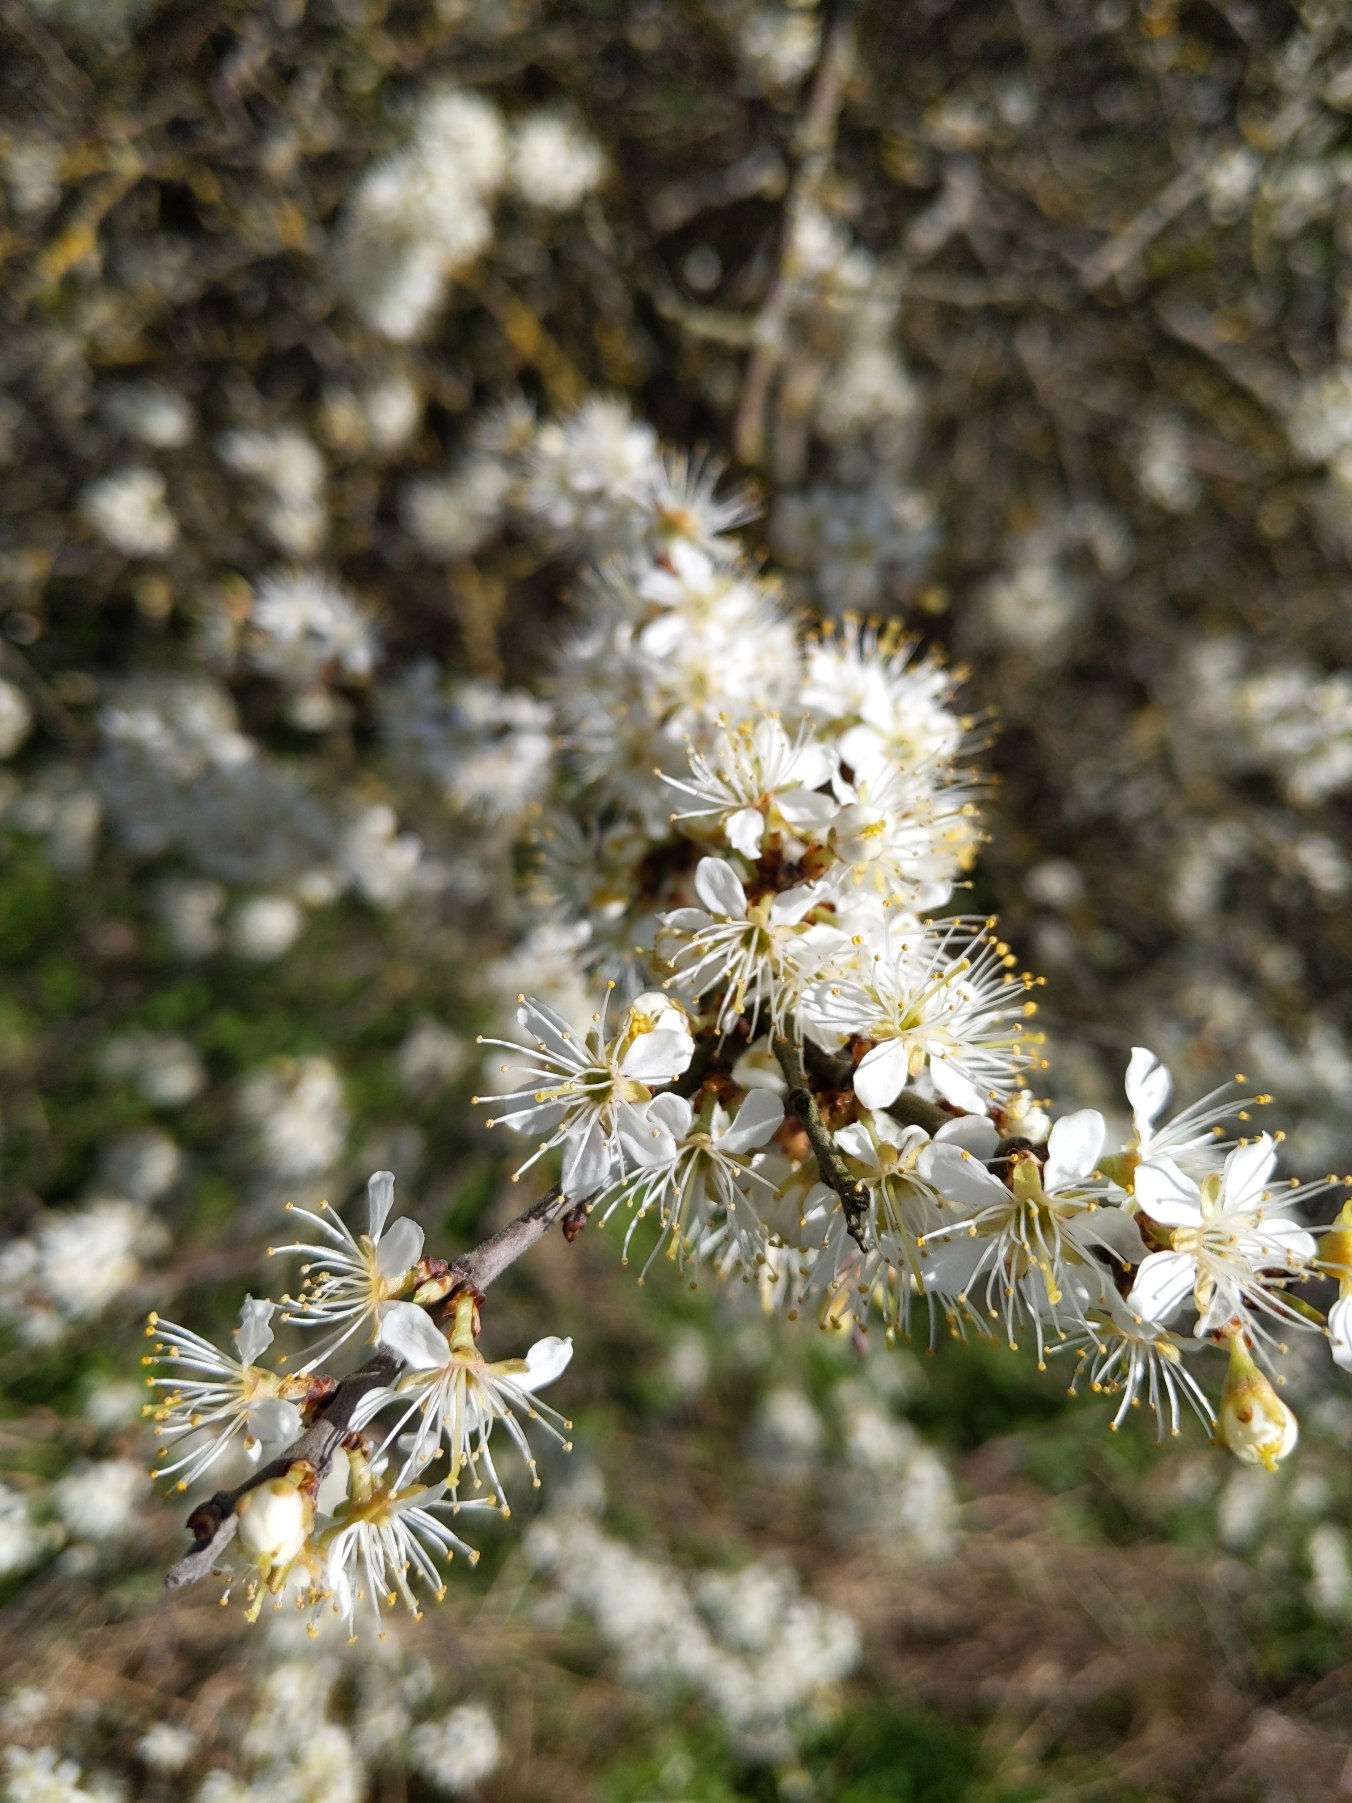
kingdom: Plantae
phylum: Tracheophyta
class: Magnoliopsida
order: Rosales
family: Rosaceae
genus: Prunus
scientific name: Prunus spinosa
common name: Slåen
